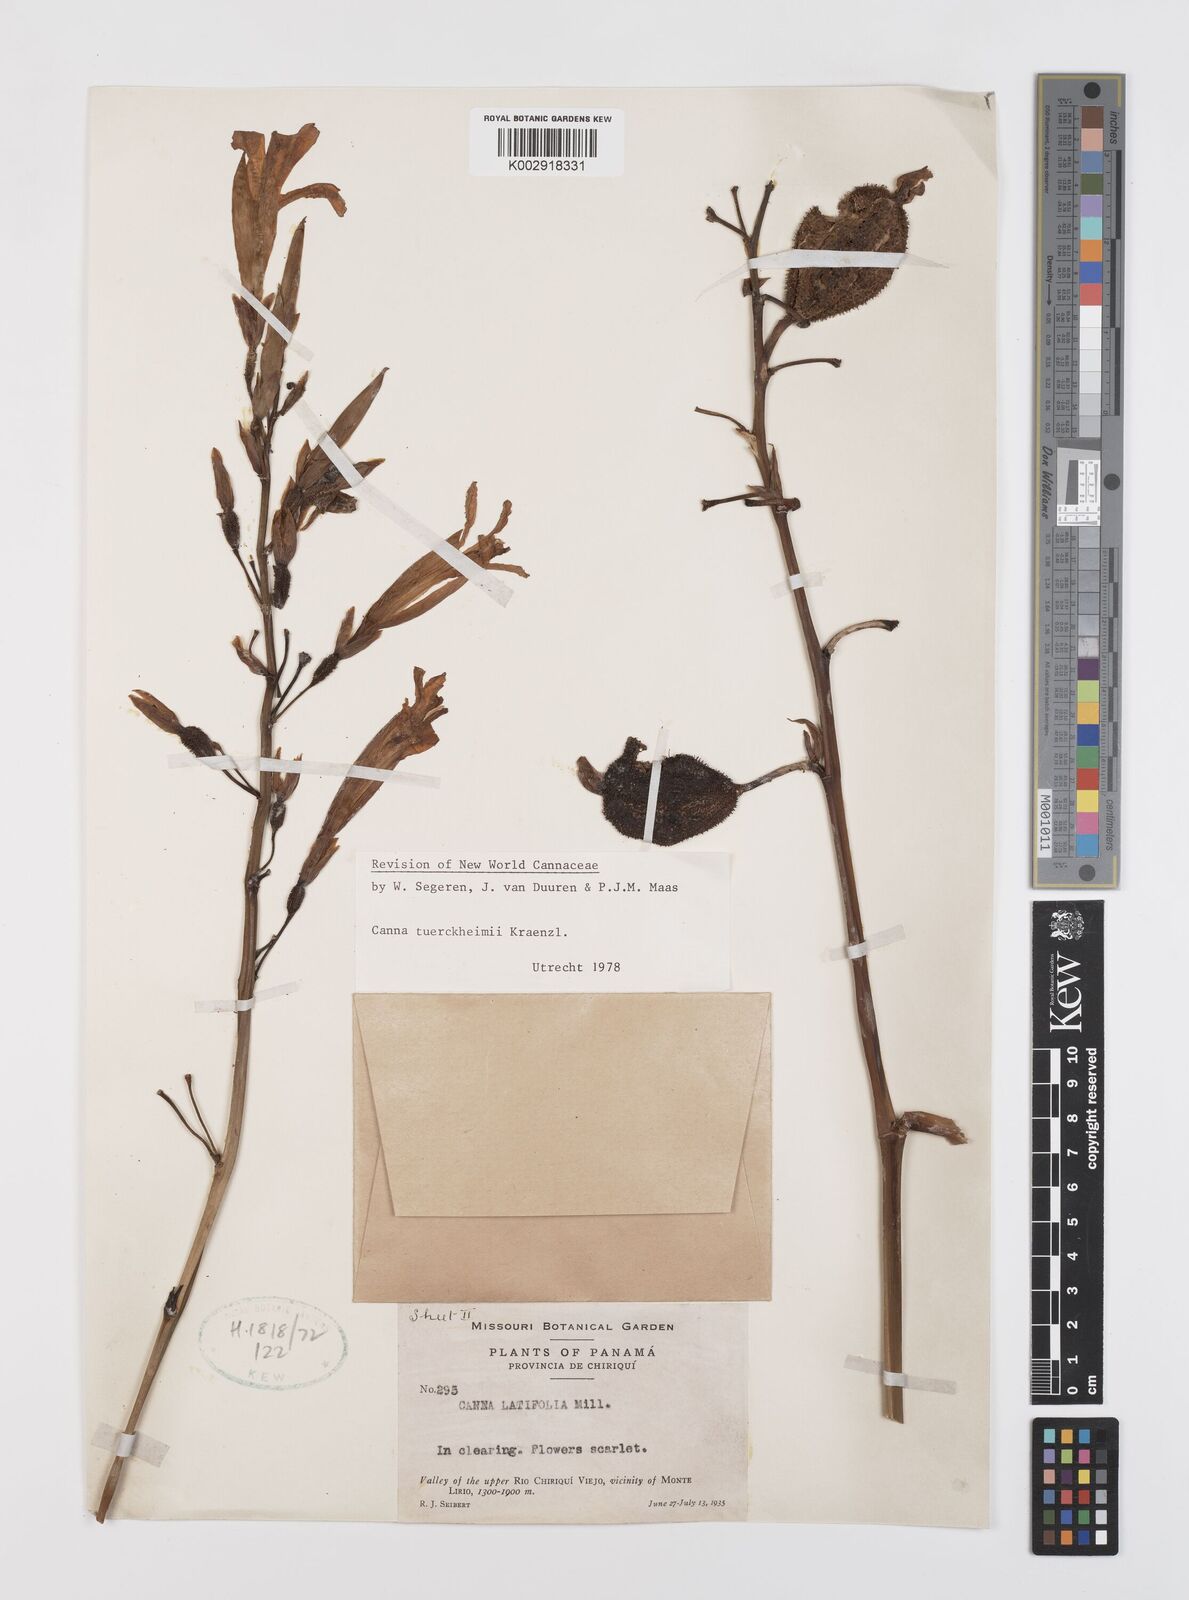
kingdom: Plantae
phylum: Tracheophyta
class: Liliopsida
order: Zingiberales
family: Cannaceae
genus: Canna
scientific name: Canna tuerckheimii
